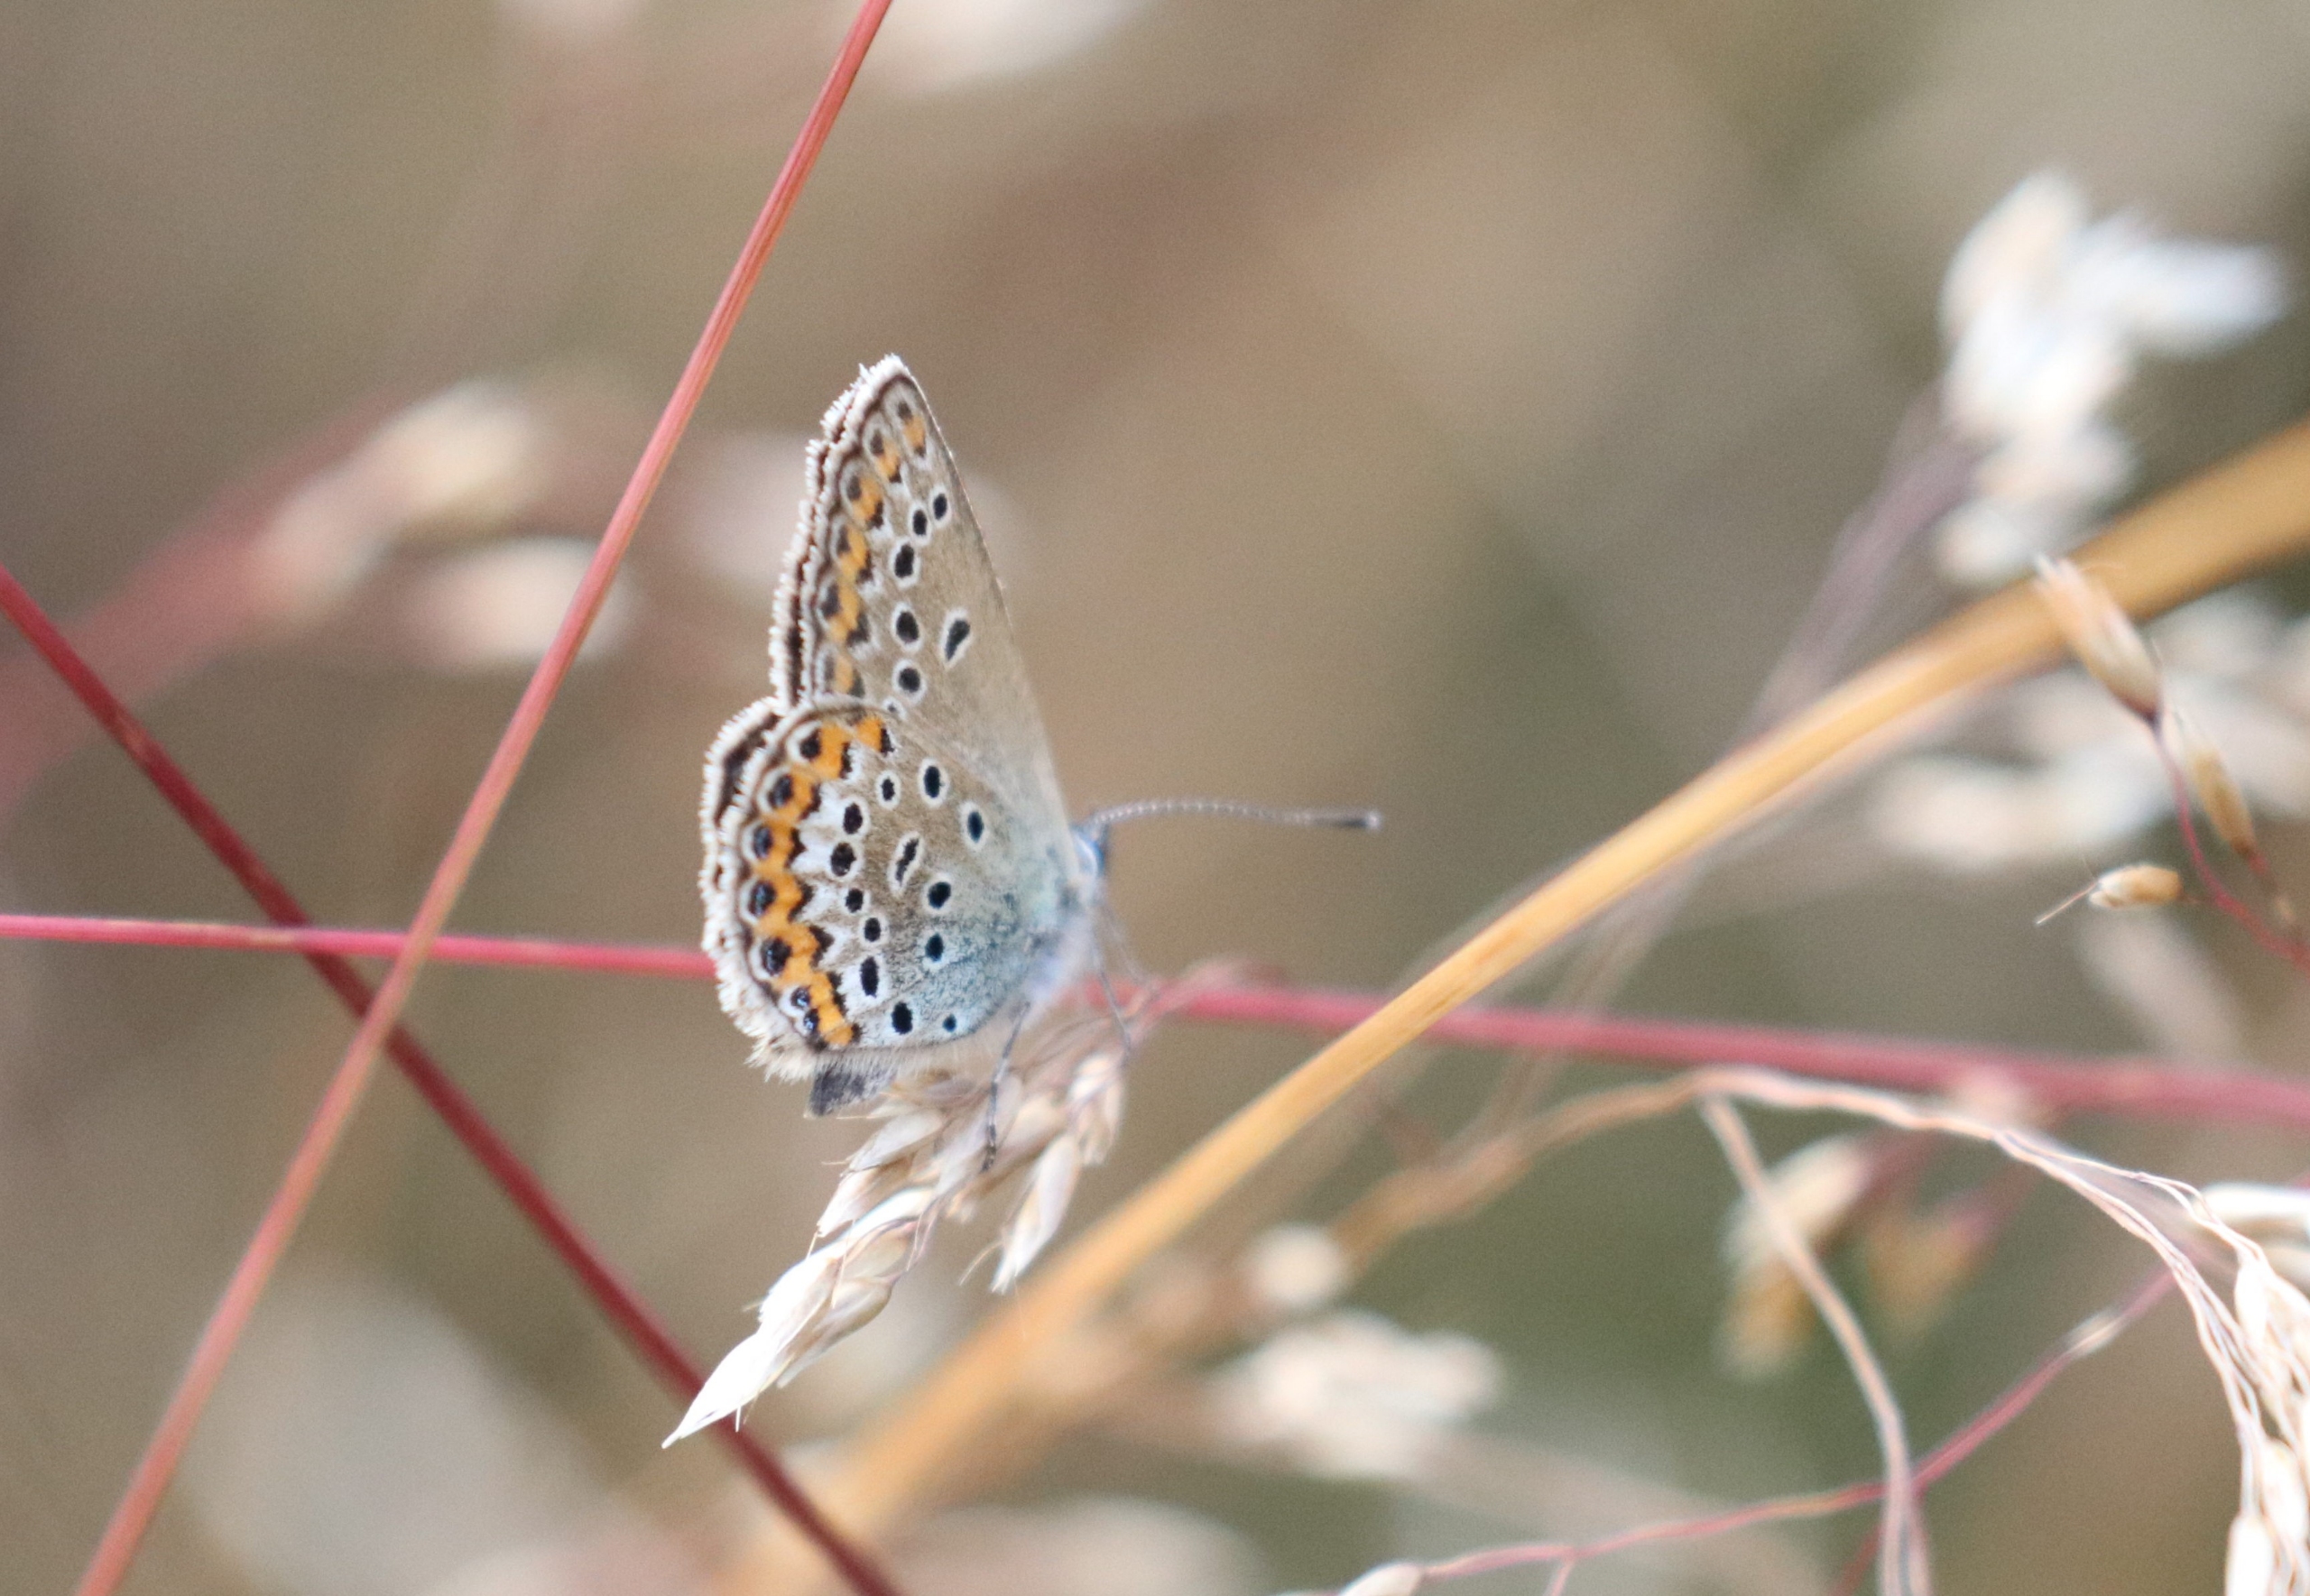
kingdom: Animalia
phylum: Arthropoda
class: Insecta
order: Lepidoptera
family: Lycaenidae
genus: Lycaeides
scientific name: Lycaeides idas
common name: Foranderlig blåfugl
